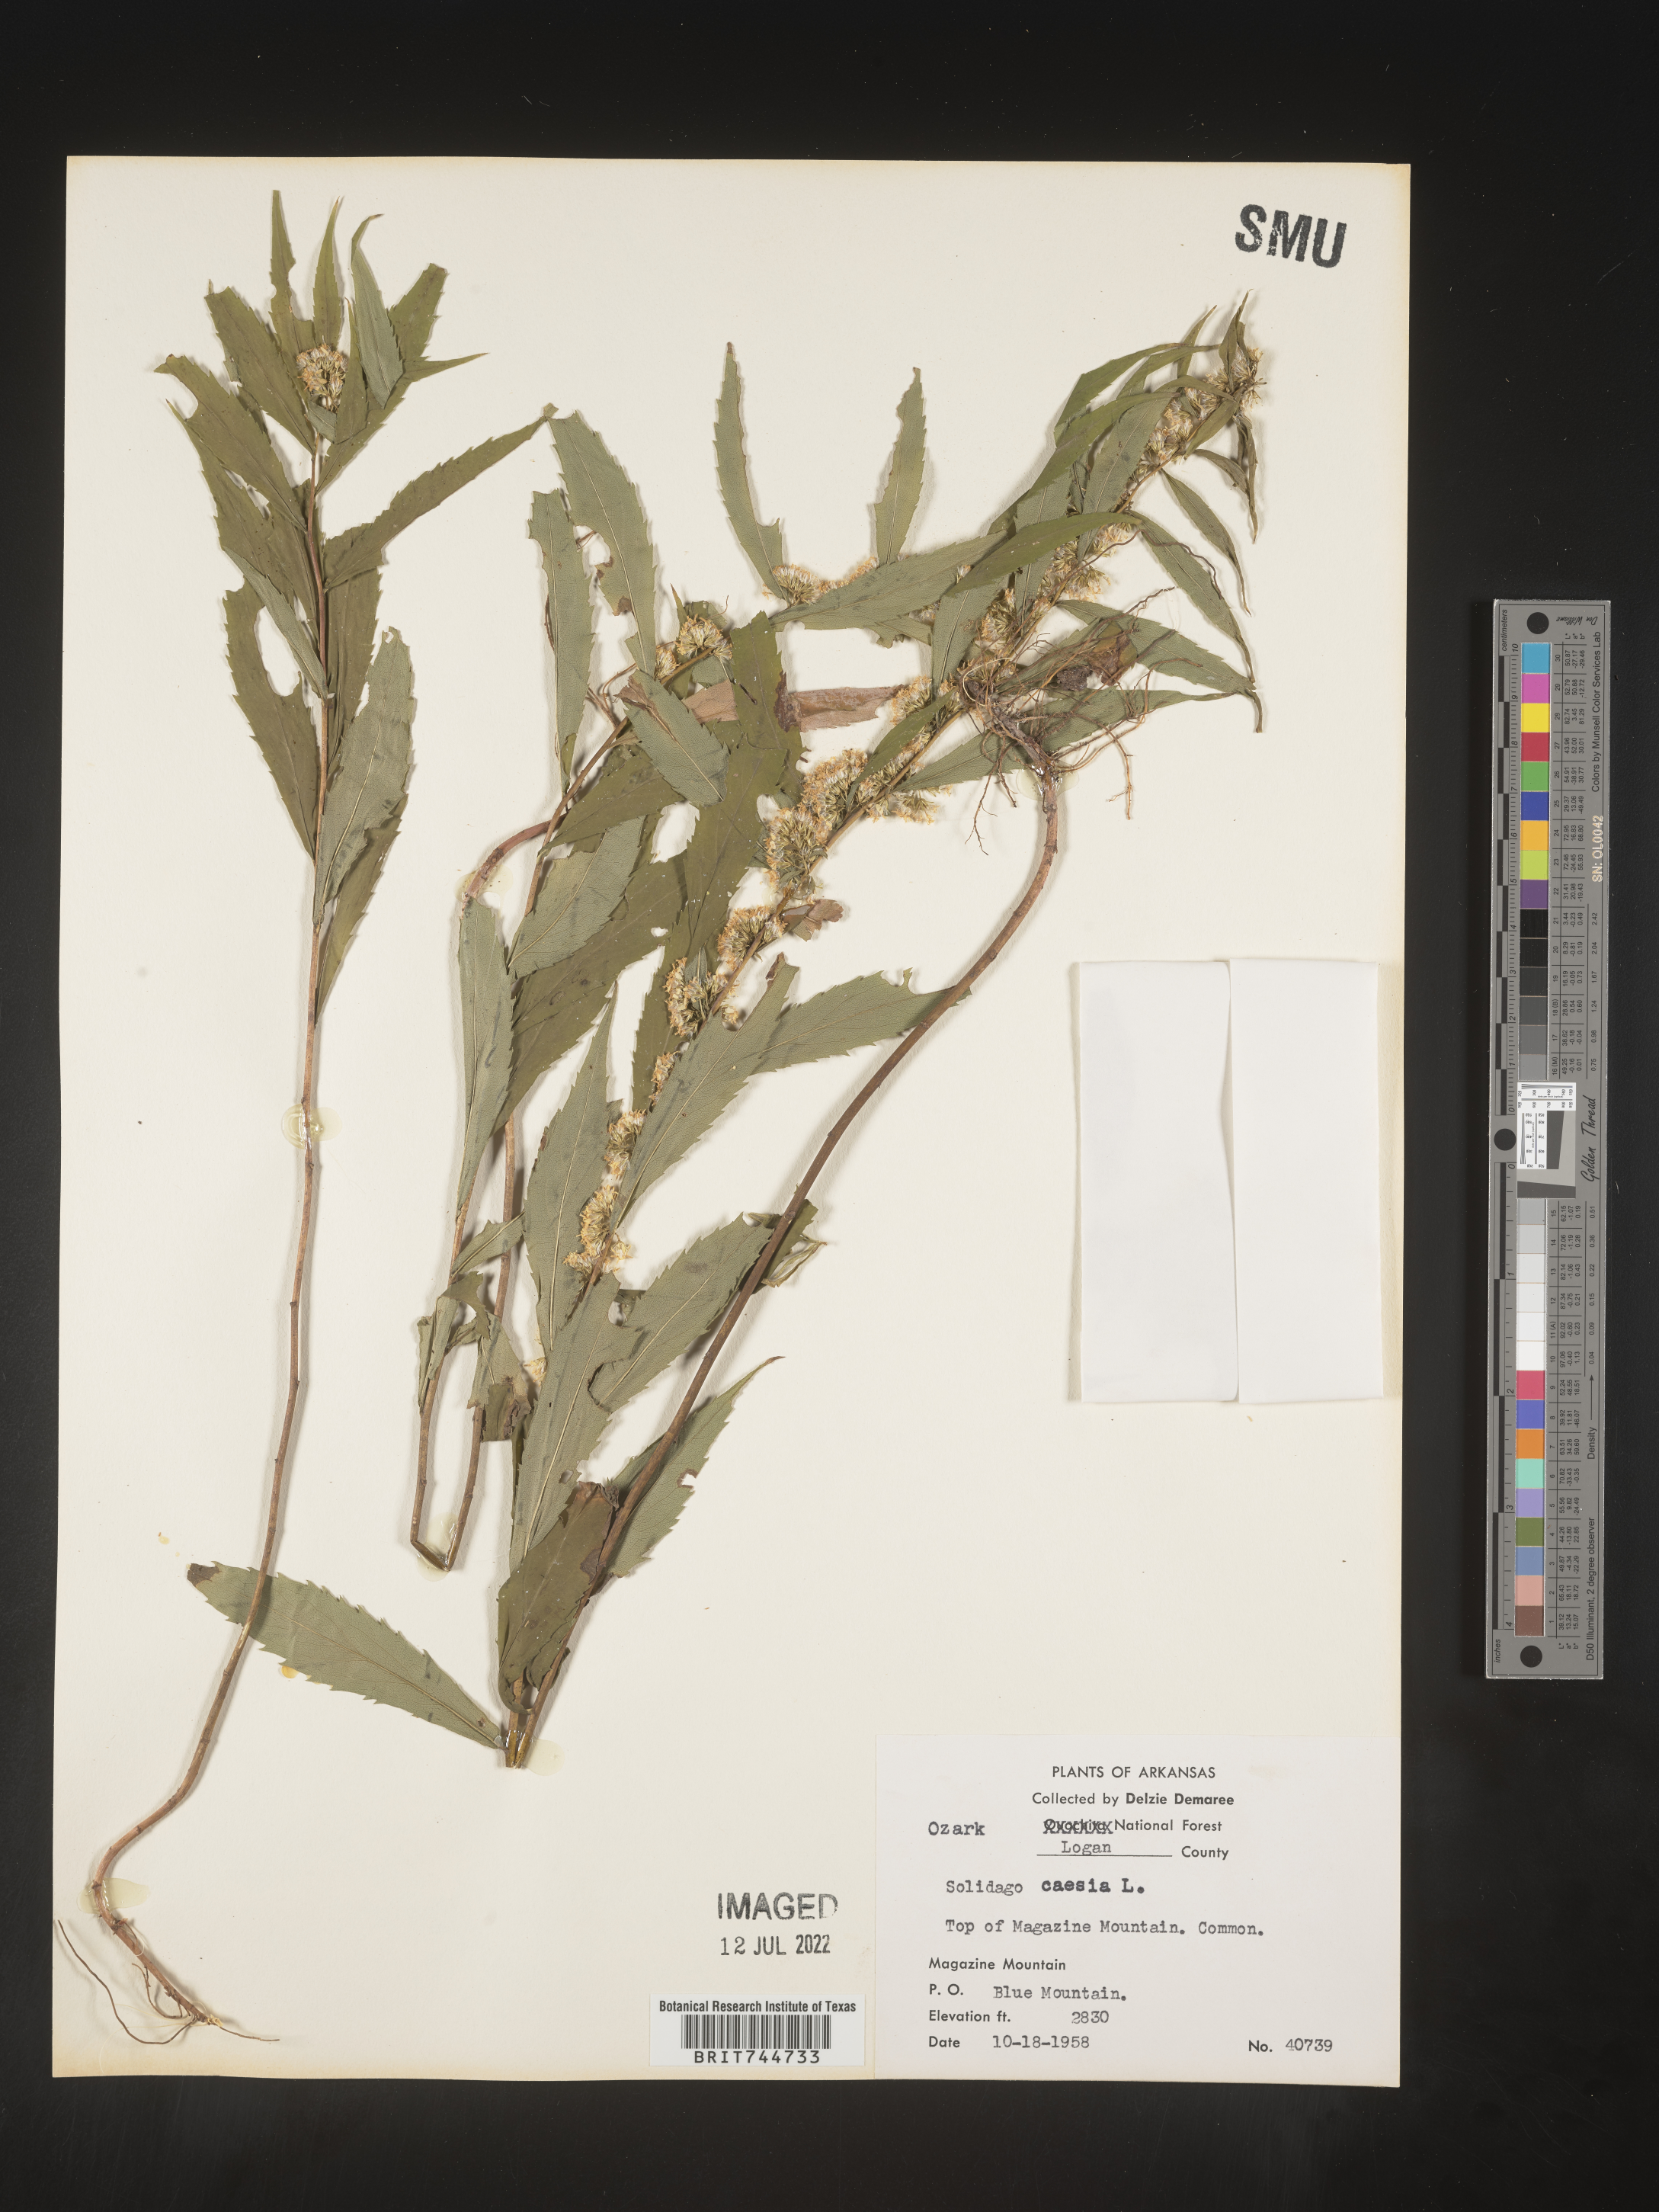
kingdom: Plantae
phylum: Tracheophyta
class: Magnoliopsida
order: Asterales
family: Asteraceae
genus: Solidago
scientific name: Solidago caesia
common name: Woodland goldenrod
